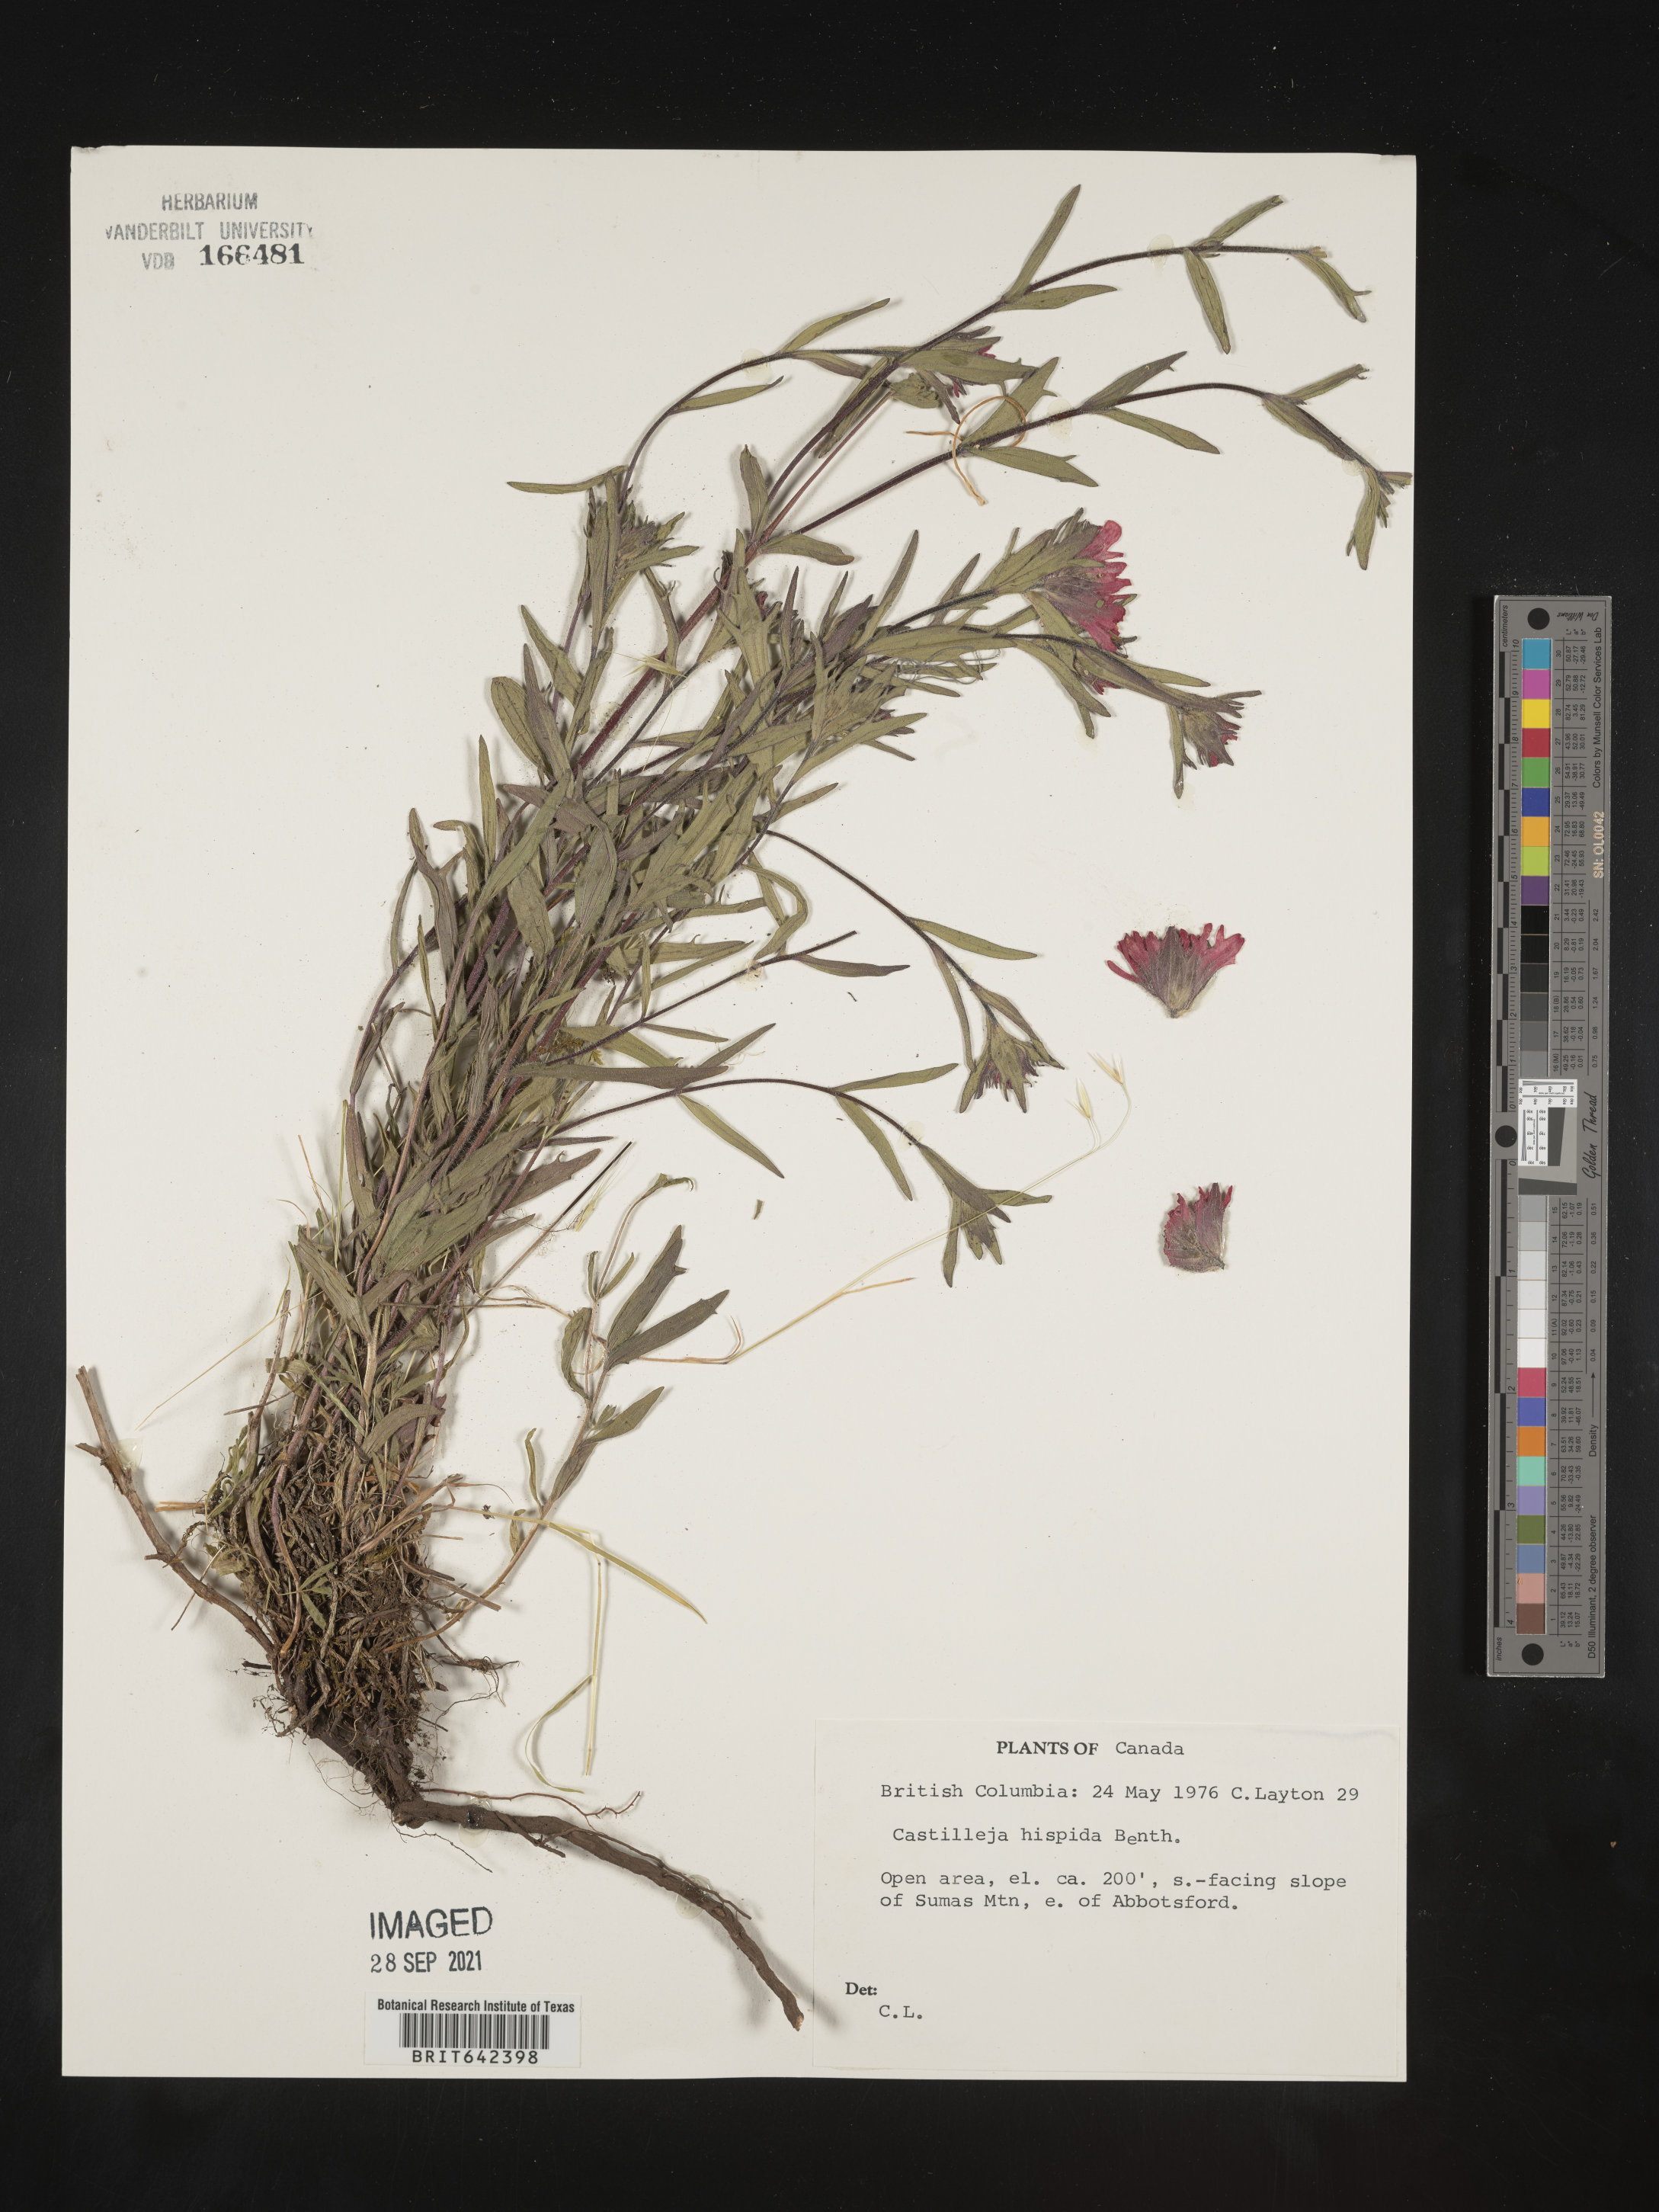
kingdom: Plantae
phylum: Tracheophyta
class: Magnoliopsida
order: Lamiales
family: Orobanchaceae
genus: Castilleja
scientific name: Castilleja
